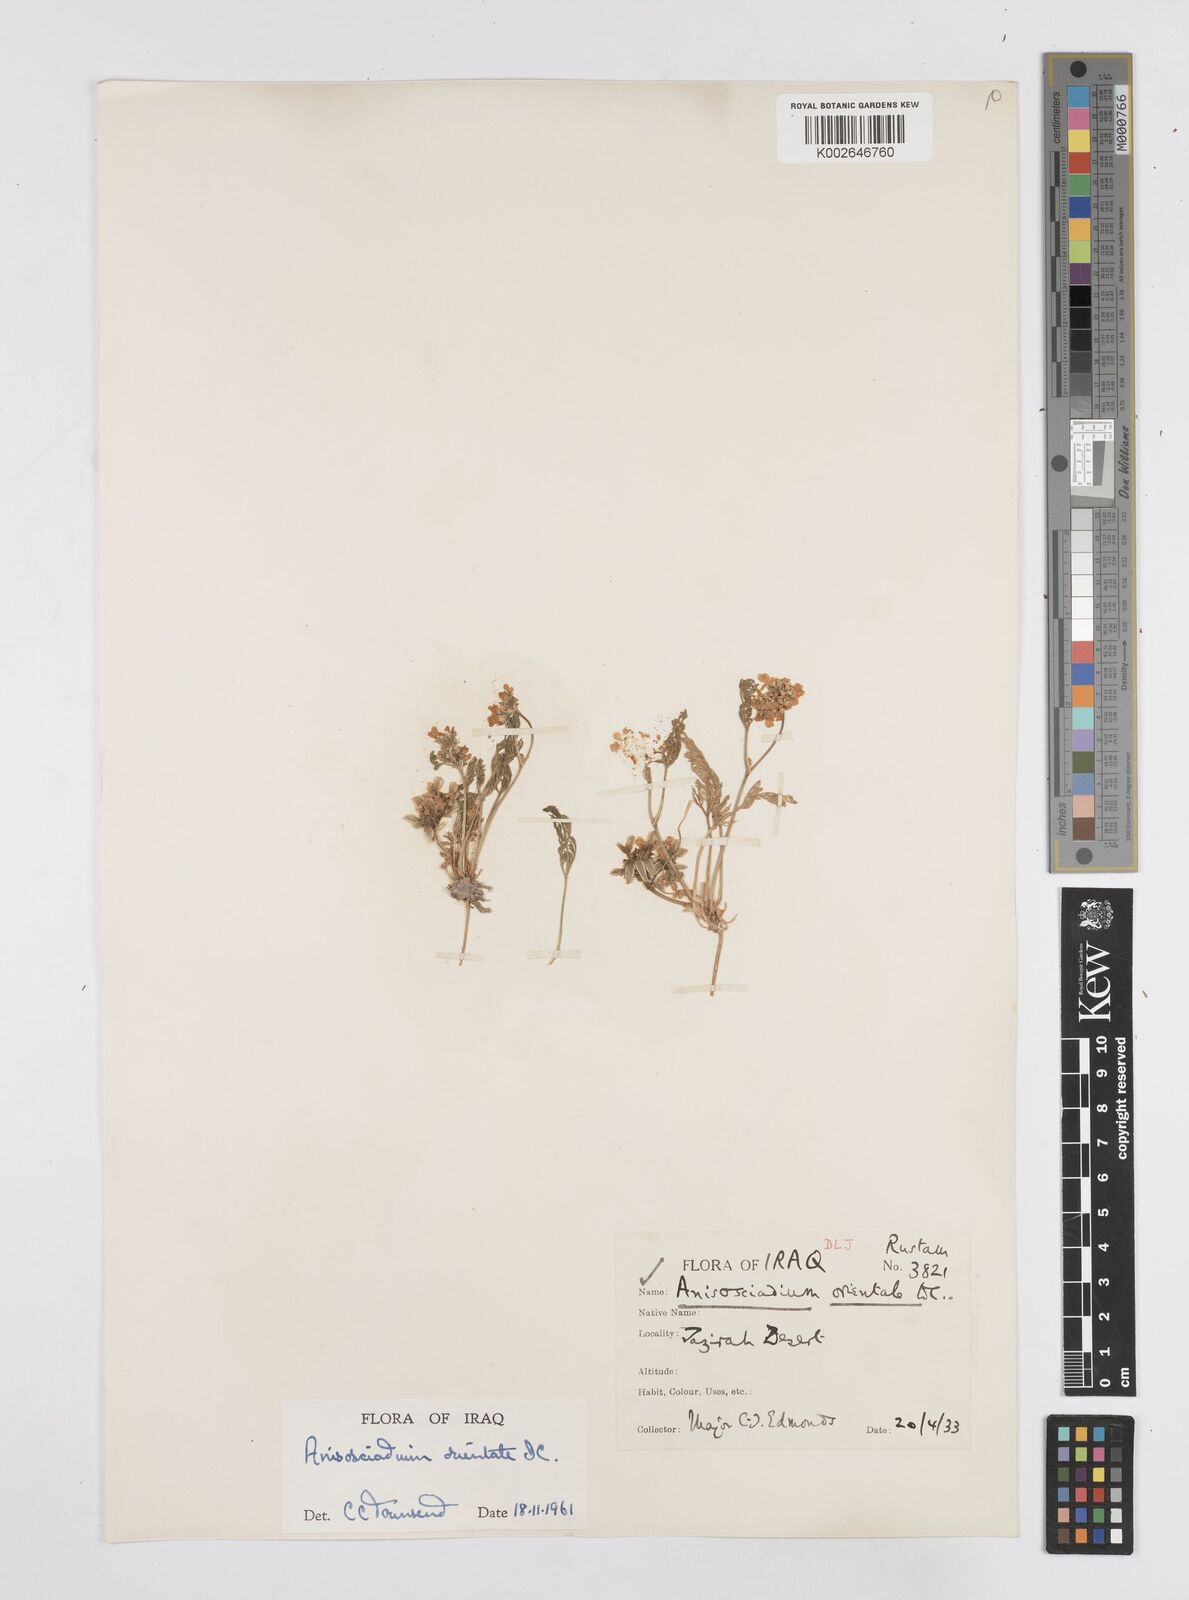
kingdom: Plantae
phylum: Tracheophyta
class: Magnoliopsida
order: Apiales
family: Apiaceae
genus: Anisosciadium
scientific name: Anisosciadium orientale
